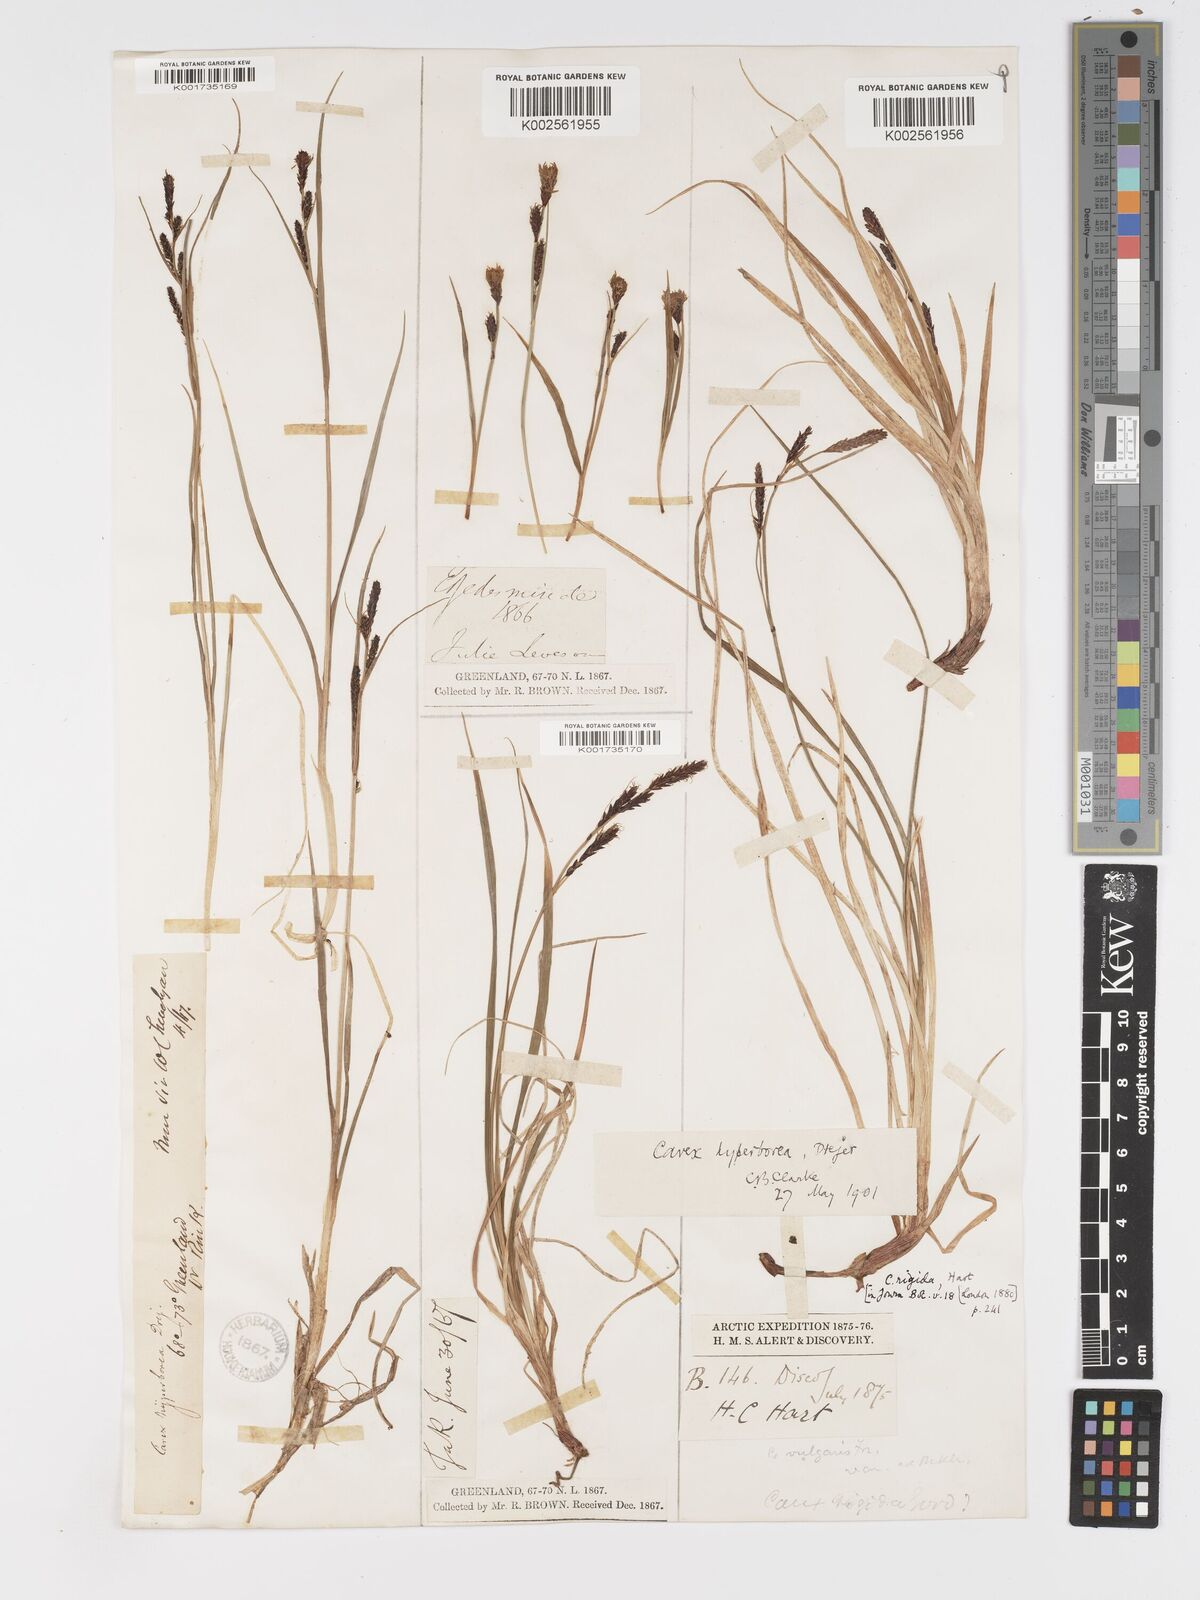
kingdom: Plantae
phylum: Tracheophyta
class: Liliopsida
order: Poales
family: Cyperaceae
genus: Carex
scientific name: Carex bigelowii
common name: Stiff sedge
